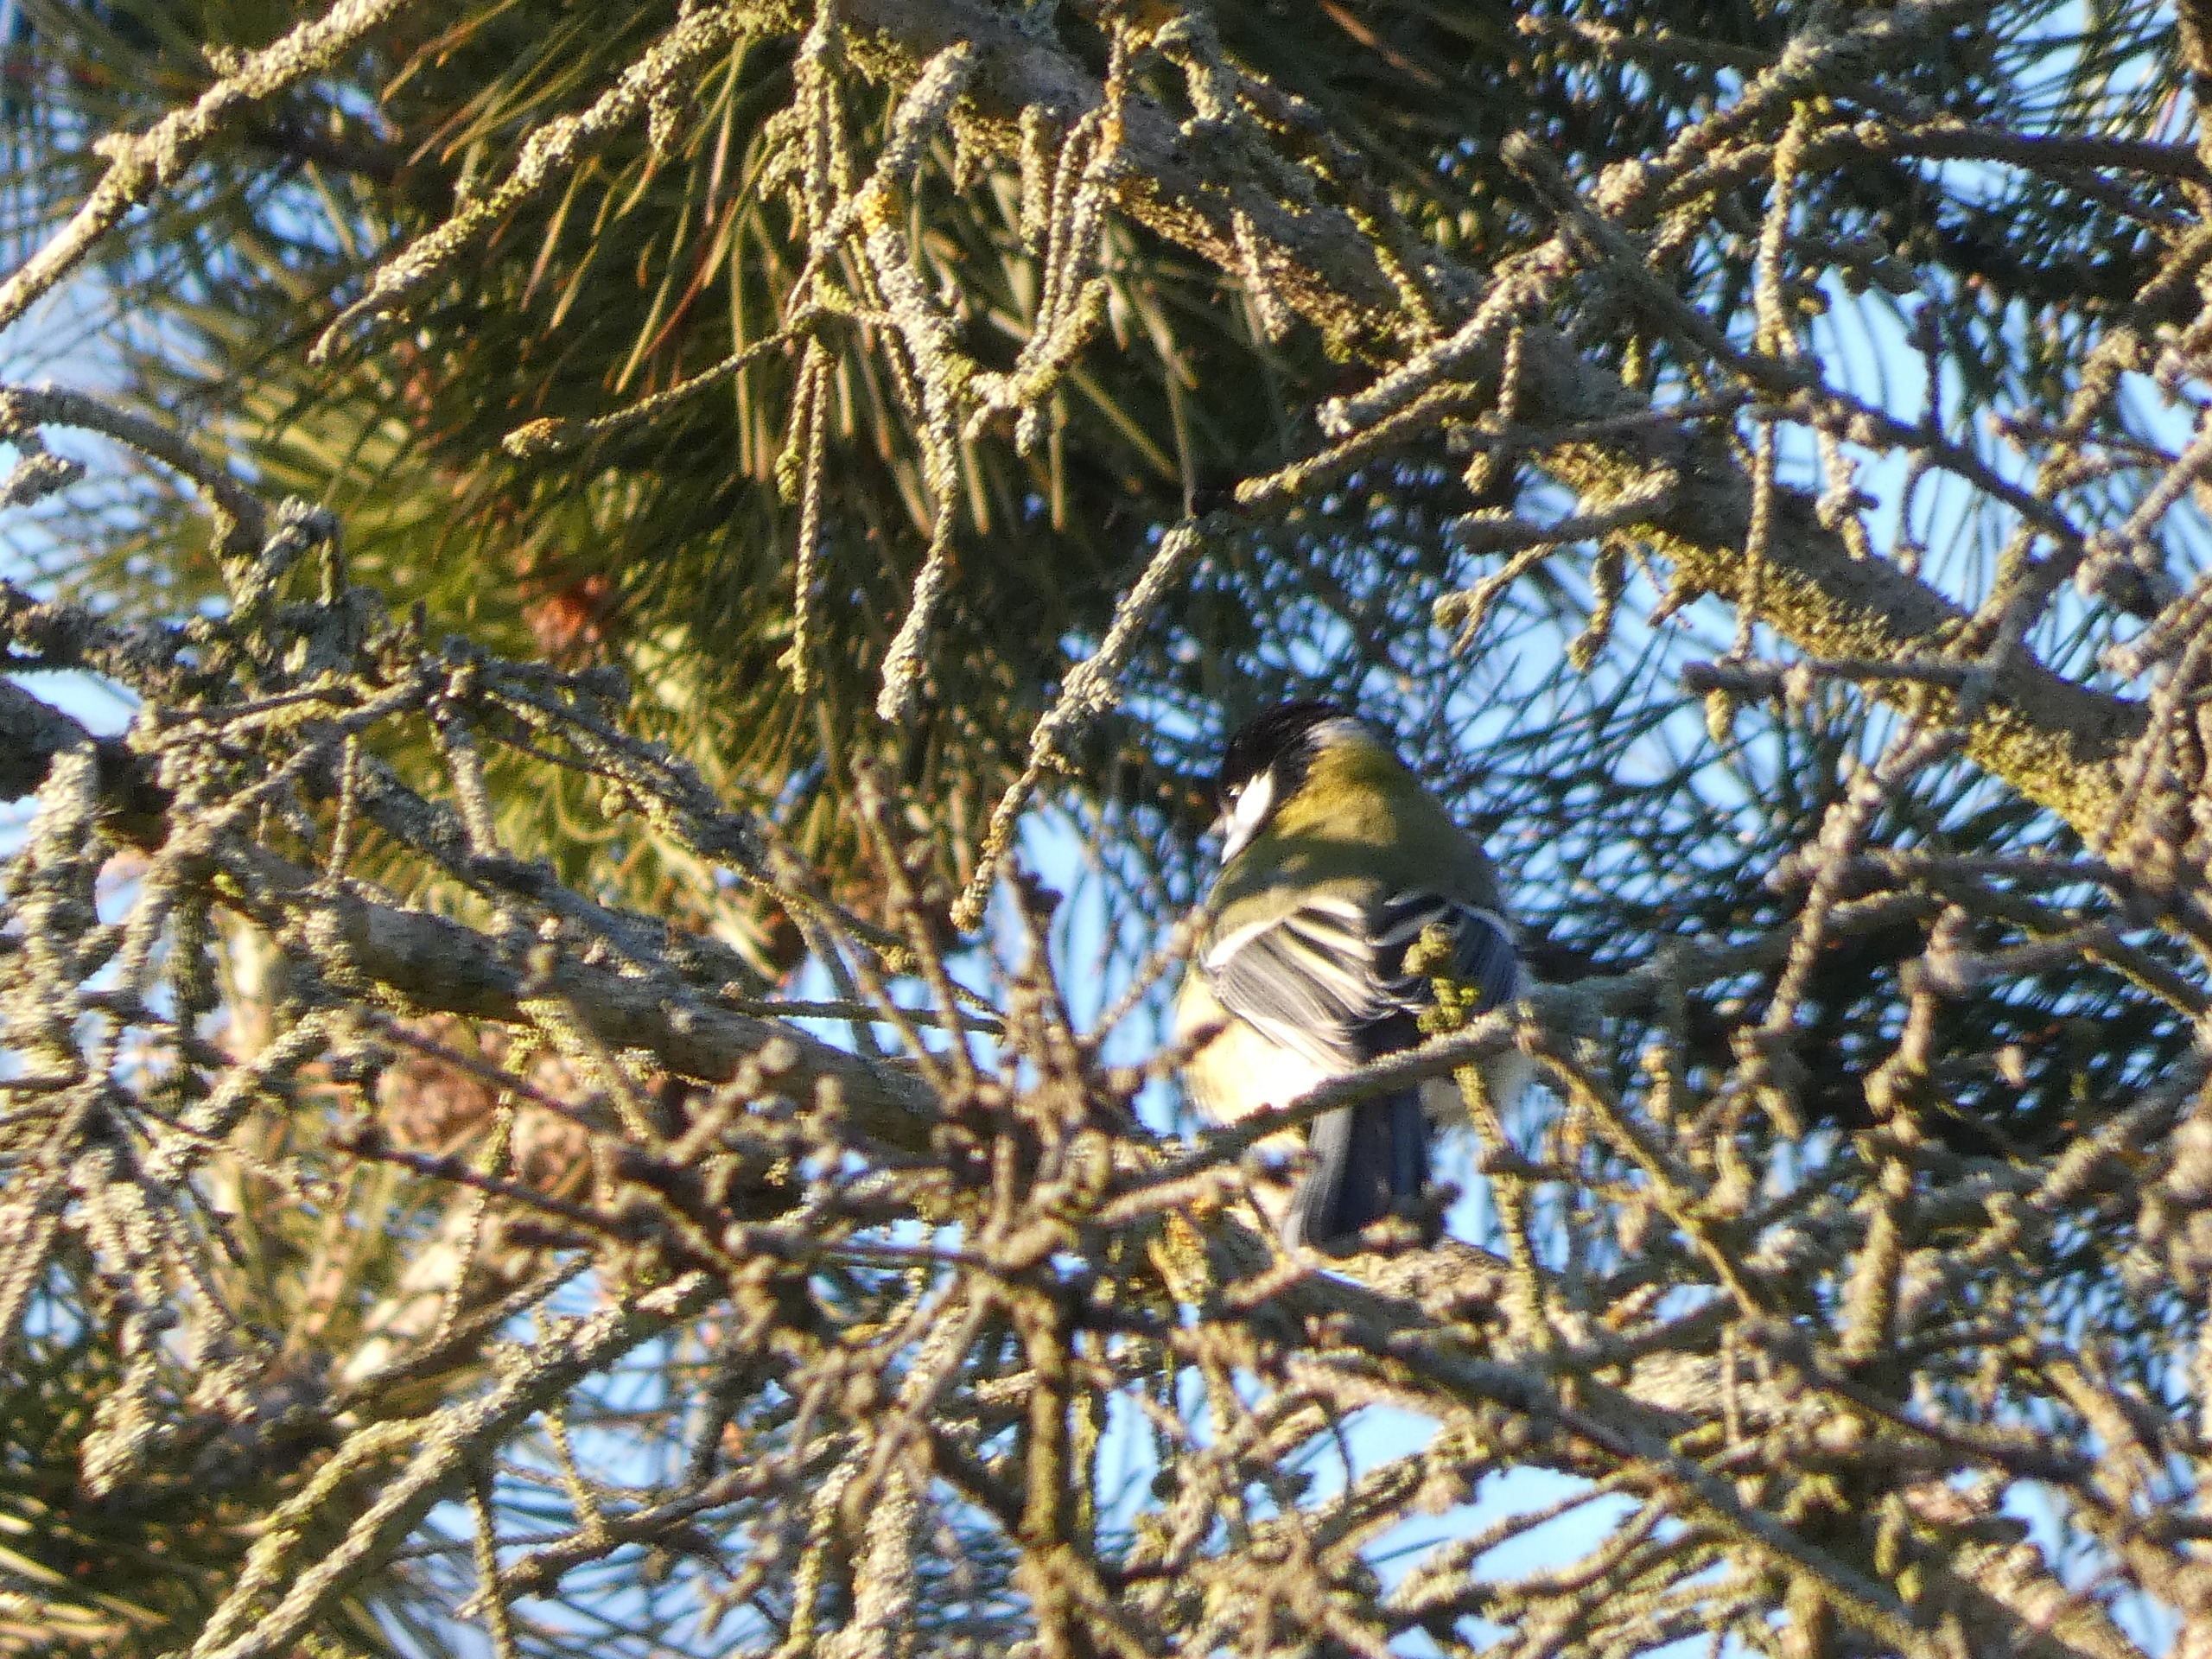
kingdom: Animalia
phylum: Chordata
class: Aves
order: Passeriformes
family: Paridae
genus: Parus
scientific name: Parus major
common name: Musvit
